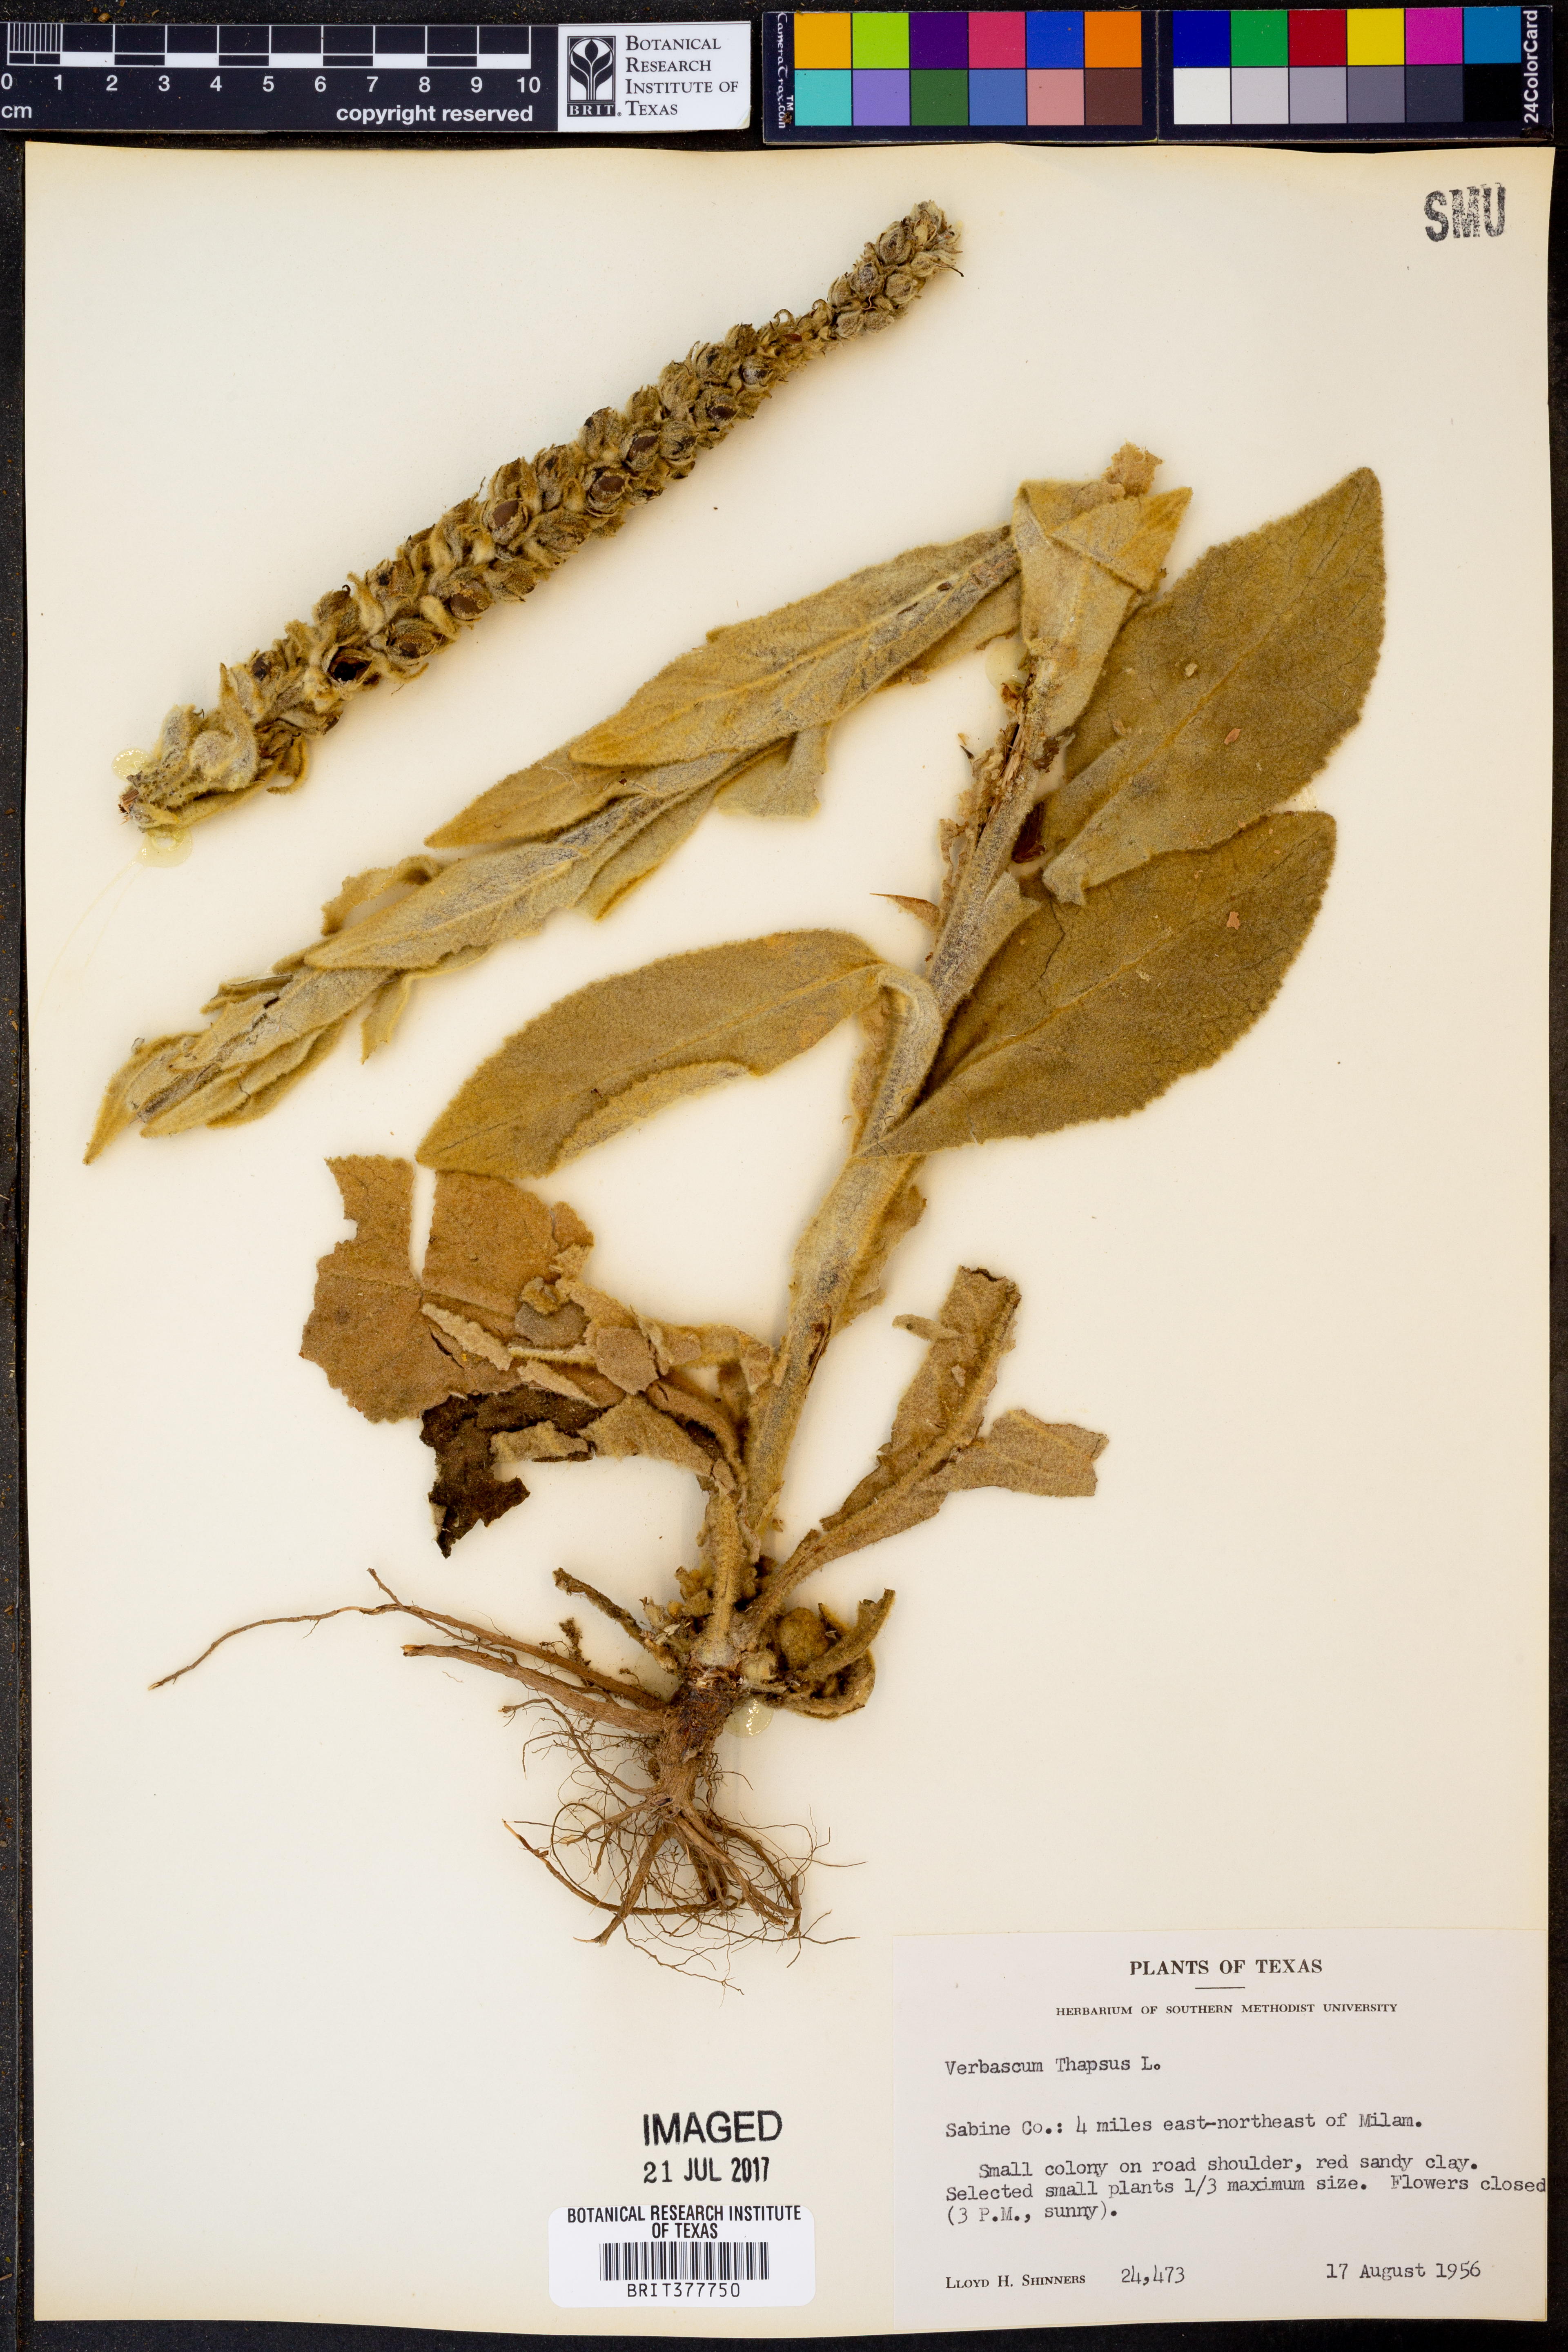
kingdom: Plantae
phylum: Tracheophyta
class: Magnoliopsida
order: Lamiales
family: Scrophulariaceae
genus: Verbascum
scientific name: Verbascum thapsus
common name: Common mullein
